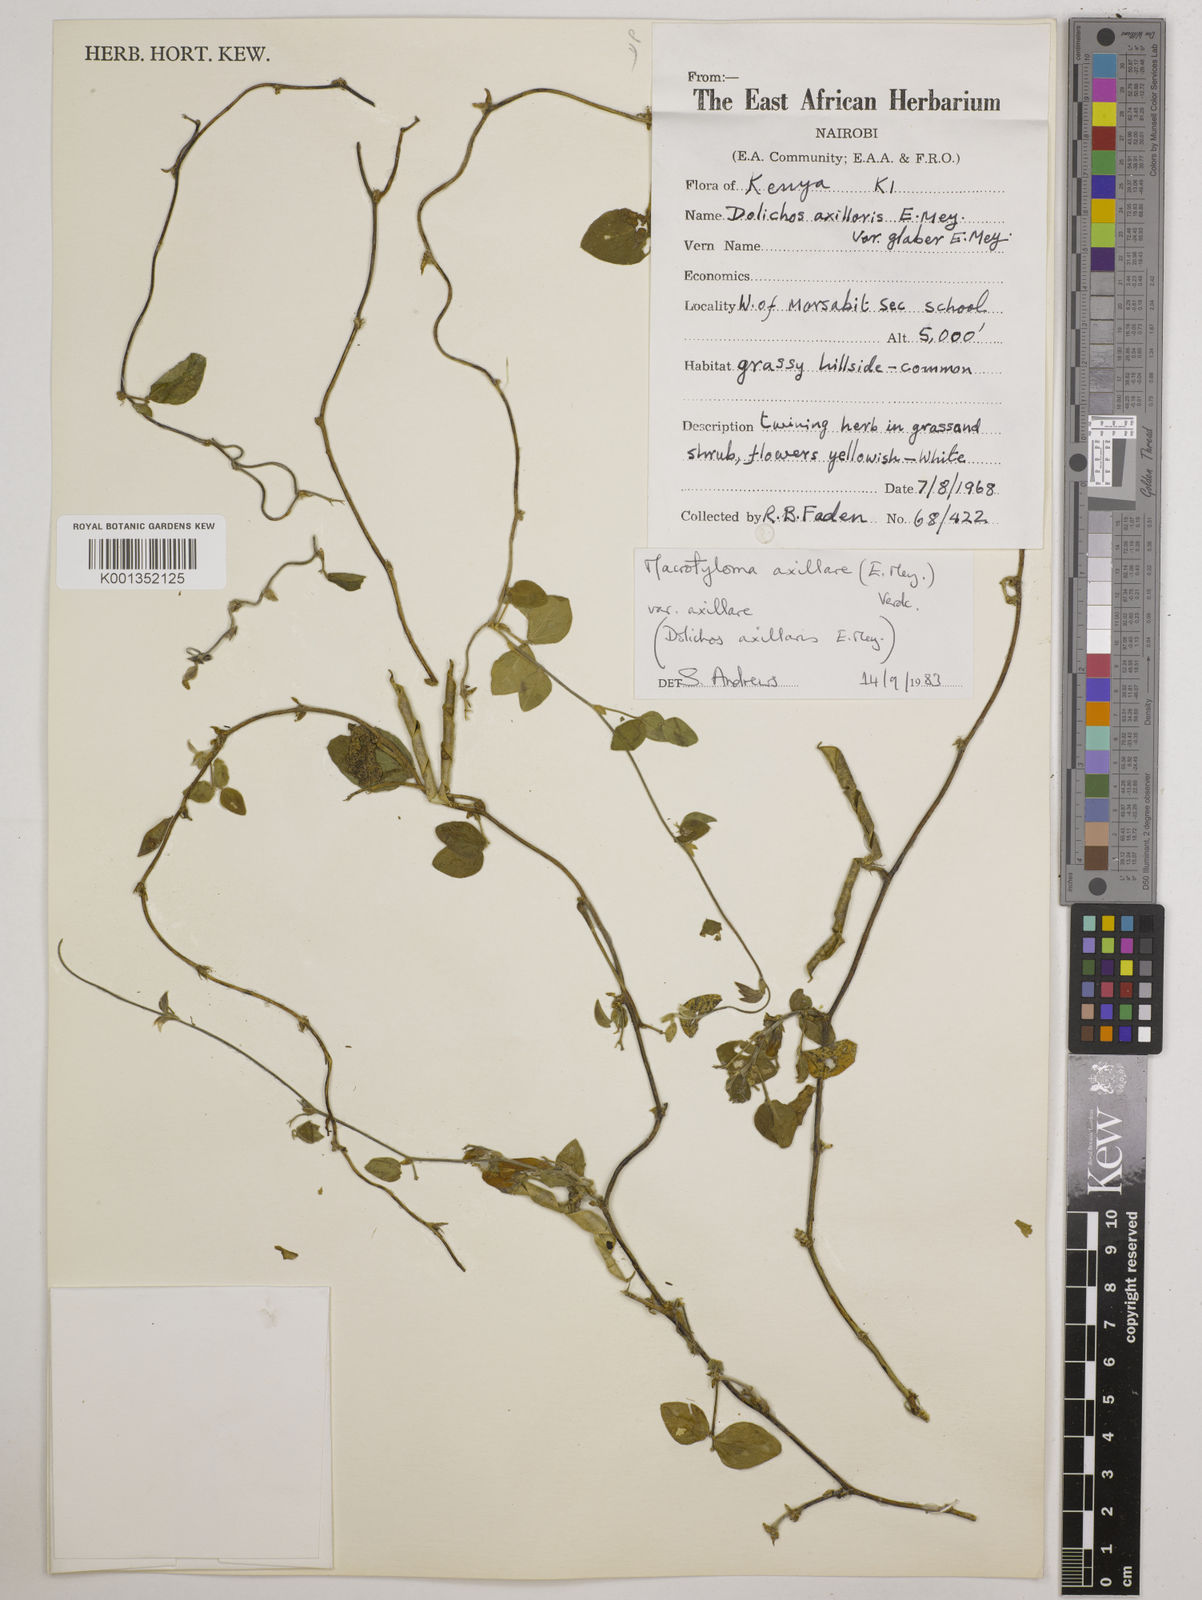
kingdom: Plantae
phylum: Tracheophyta
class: Magnoliopsida
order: Fabales
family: Fabaceae
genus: Macrotyloma
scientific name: Macrotyloma axillare
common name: Perennial horsegram
